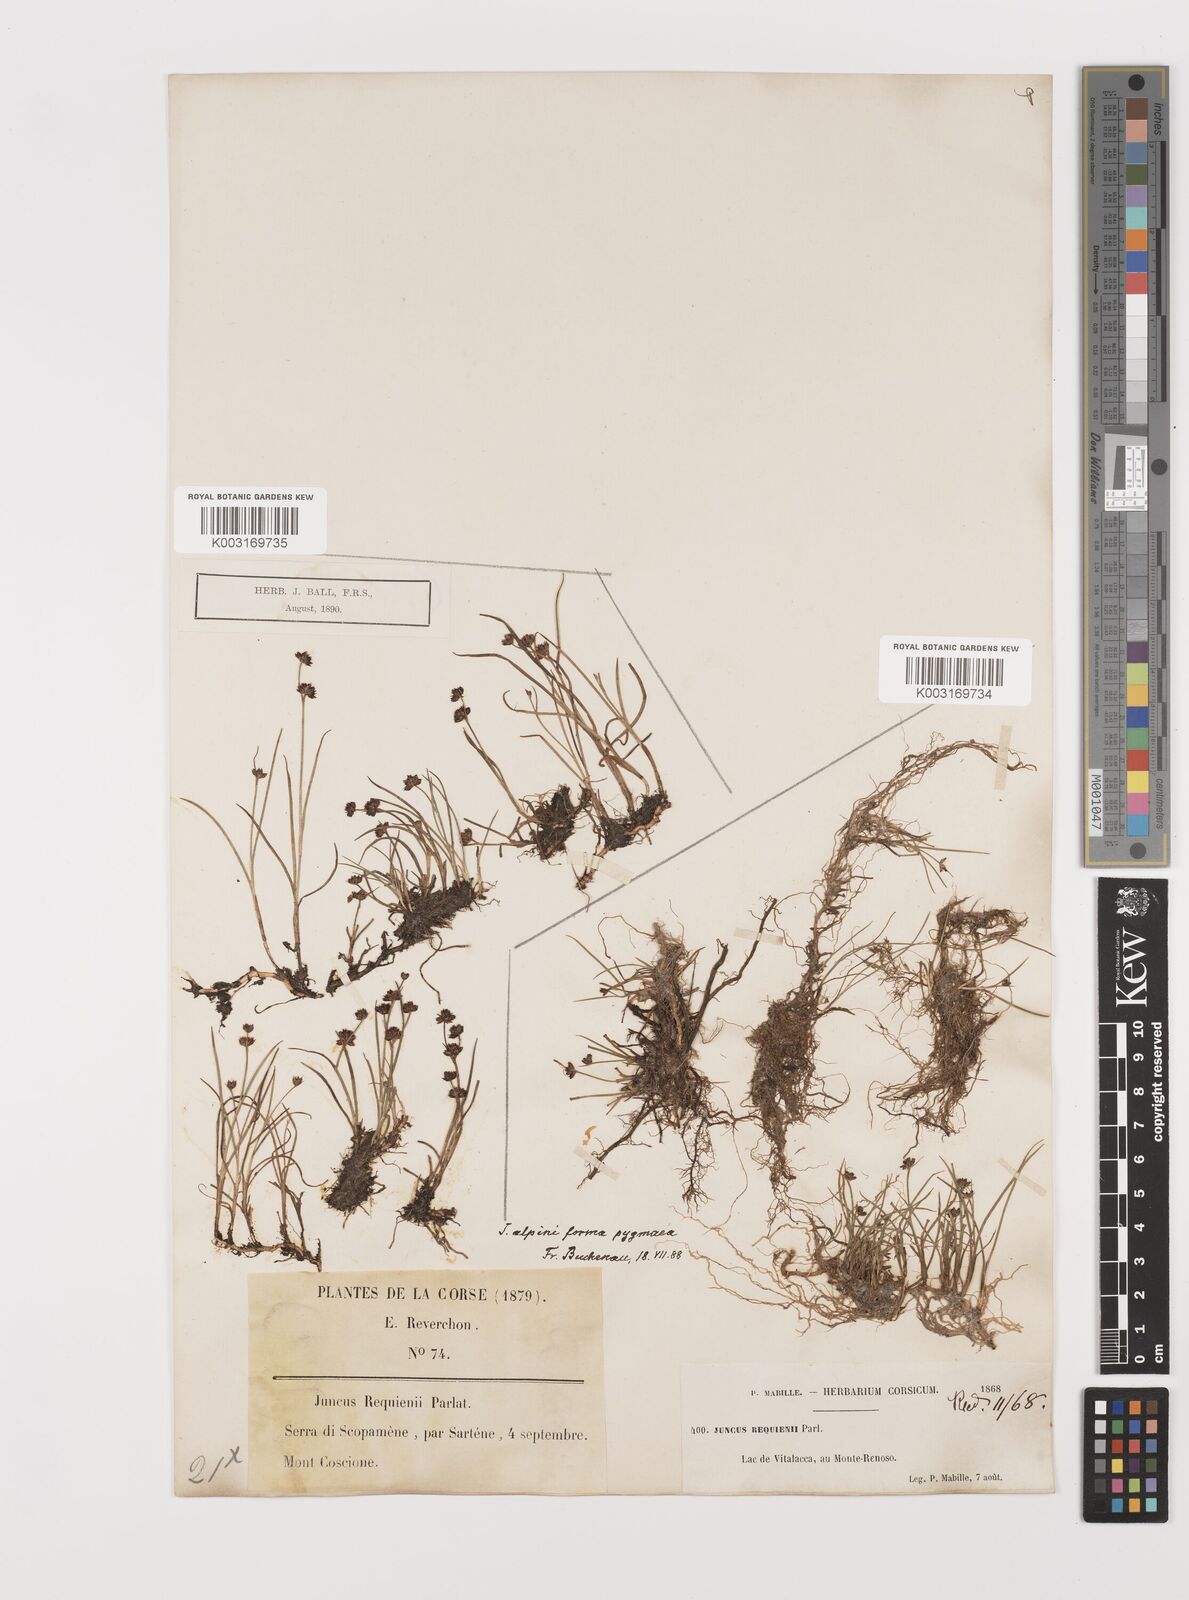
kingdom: Plantae
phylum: Tracheophyta
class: Liliopsida
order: Poales
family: Juncaceae
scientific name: Juncaceae
